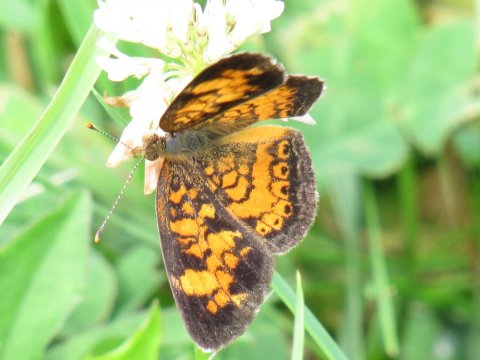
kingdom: Animalia
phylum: Arthropoda
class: Insecta
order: Lepidoptera
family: Nymphalidae
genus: Phyciodes
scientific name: Phyciodes tharos
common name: Pearl Crescent
